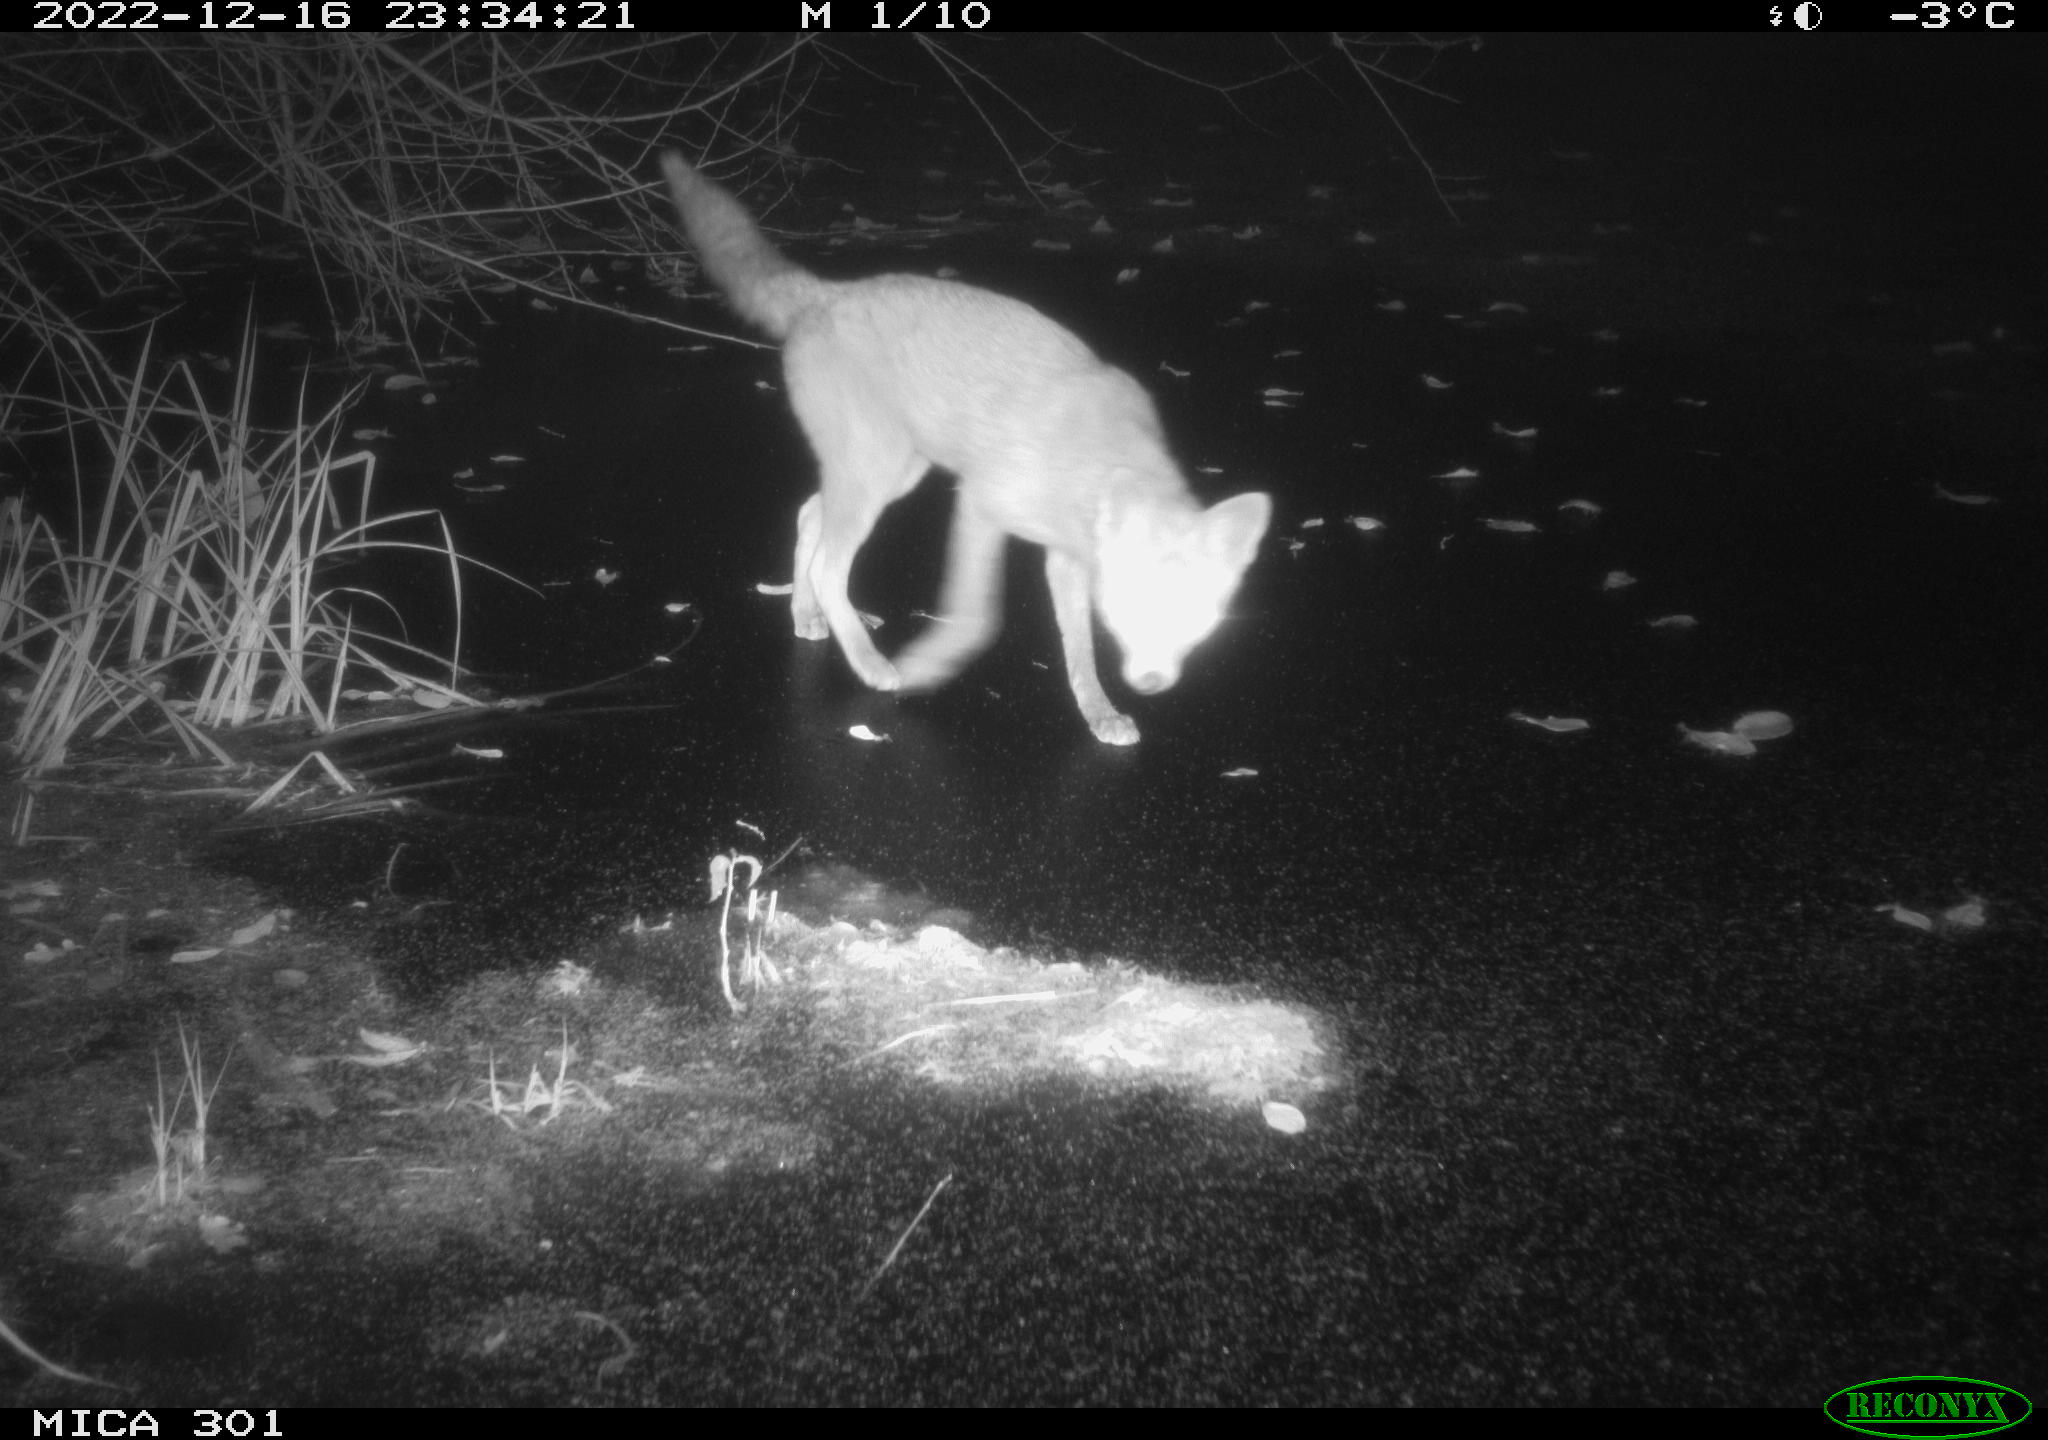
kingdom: Animalia
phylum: Chordata
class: Mammalia
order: Carnivora
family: Canidae
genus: Vulpes
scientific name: Vulpes vulpes
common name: Red fox
